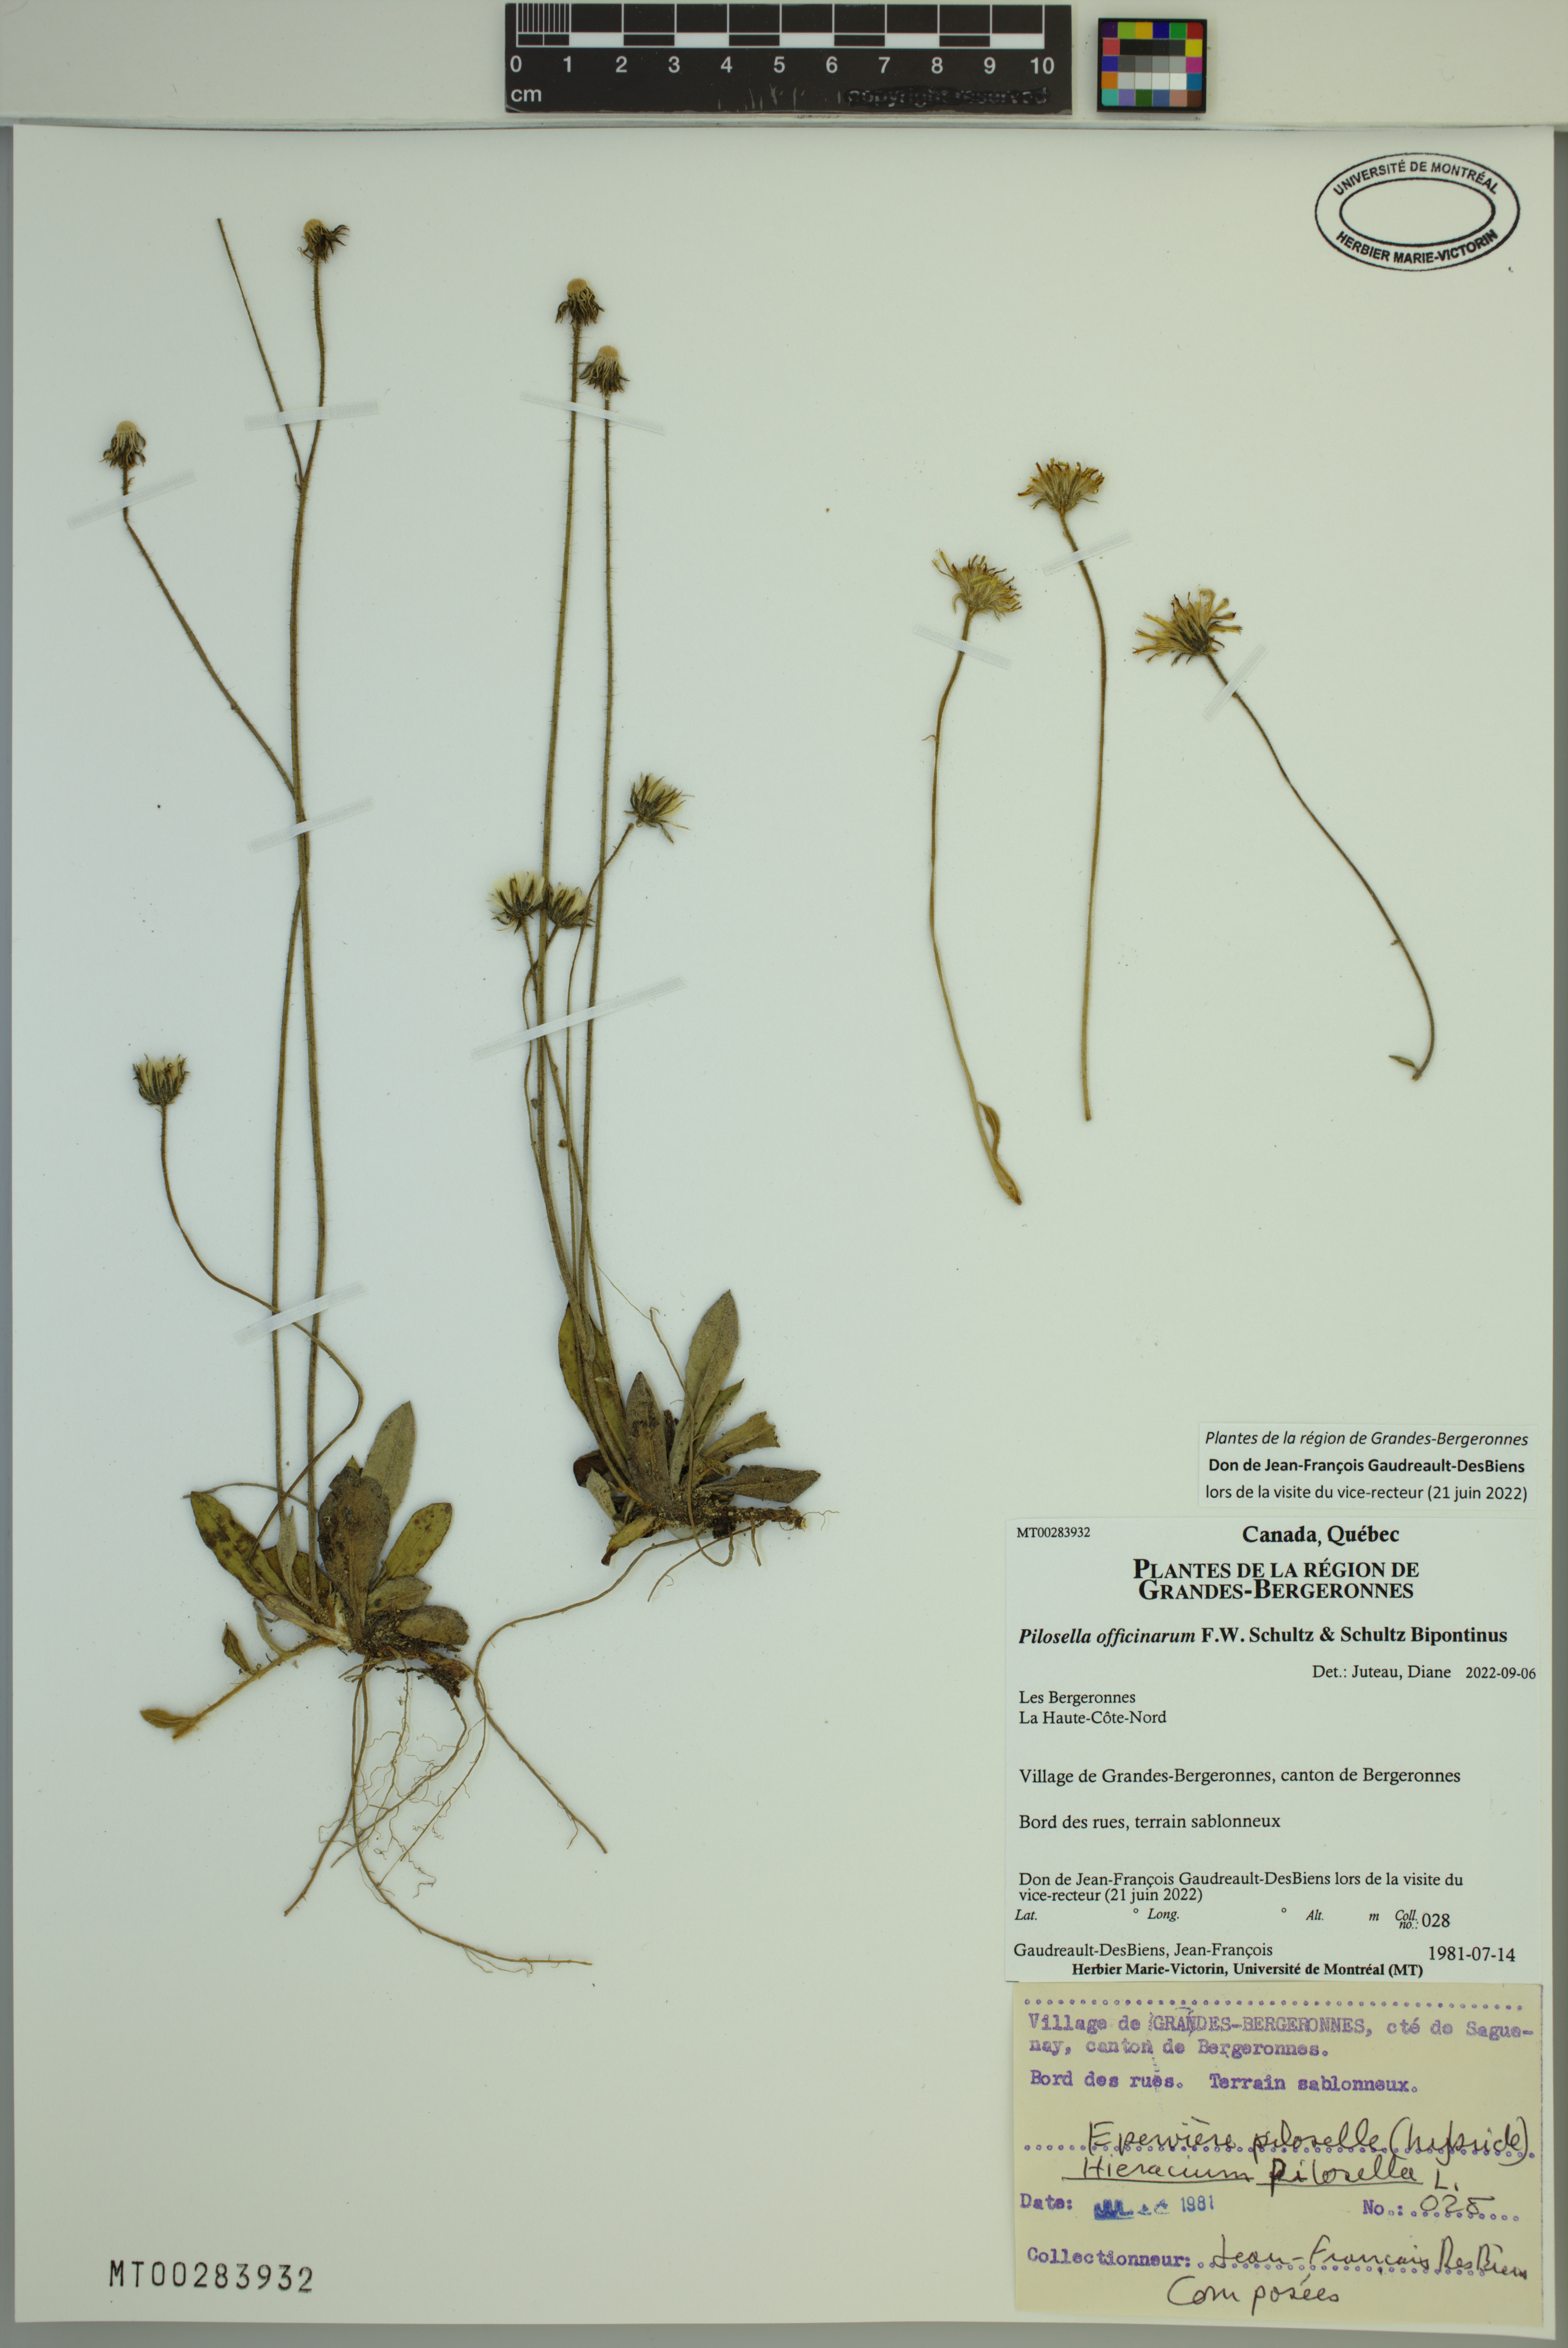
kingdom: Plantae
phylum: Tracheophyta
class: Magnoliopsida
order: Asterales
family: Asteraceae
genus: Pilosella
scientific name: Pilosella officinarum
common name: Mouse-ear hawkweed
